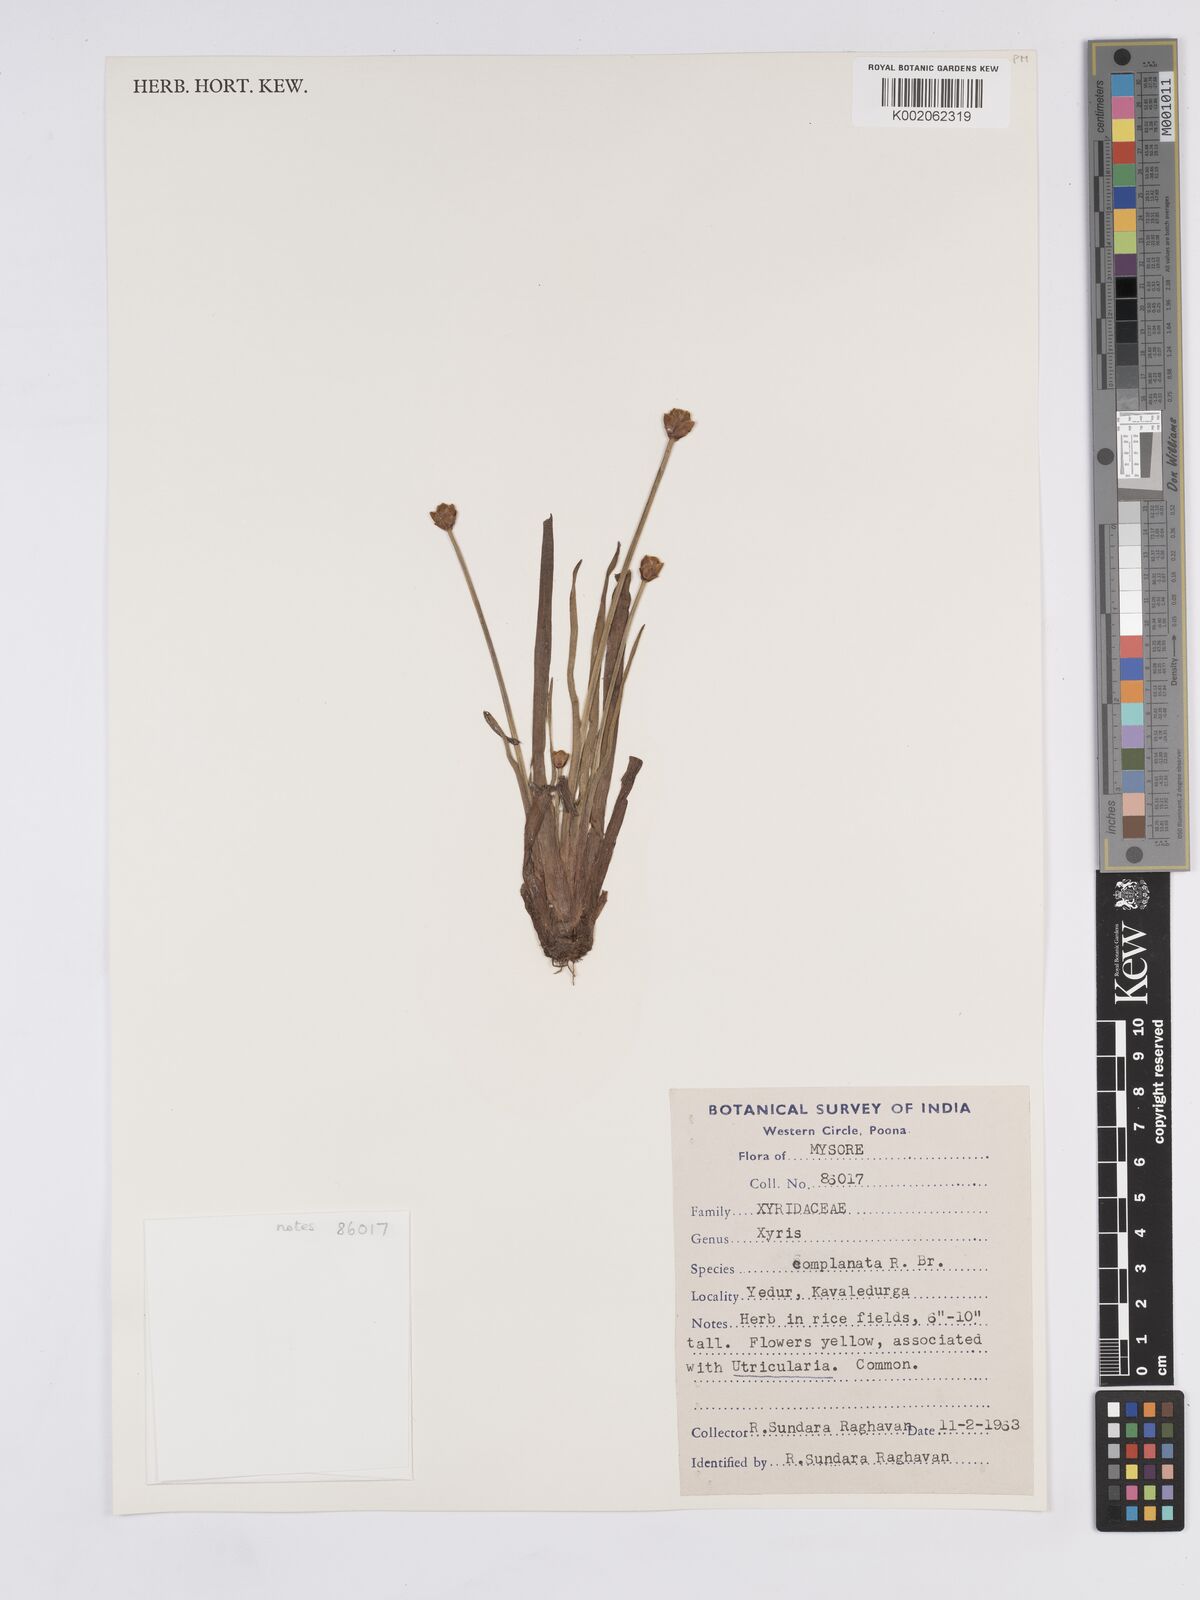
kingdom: Plantae
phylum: Tracheophyta
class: Liliopsida
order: Poales
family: Xyridaceae
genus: Xyris
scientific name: Xyris complanata
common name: Hawai'i yelloweyed grass
